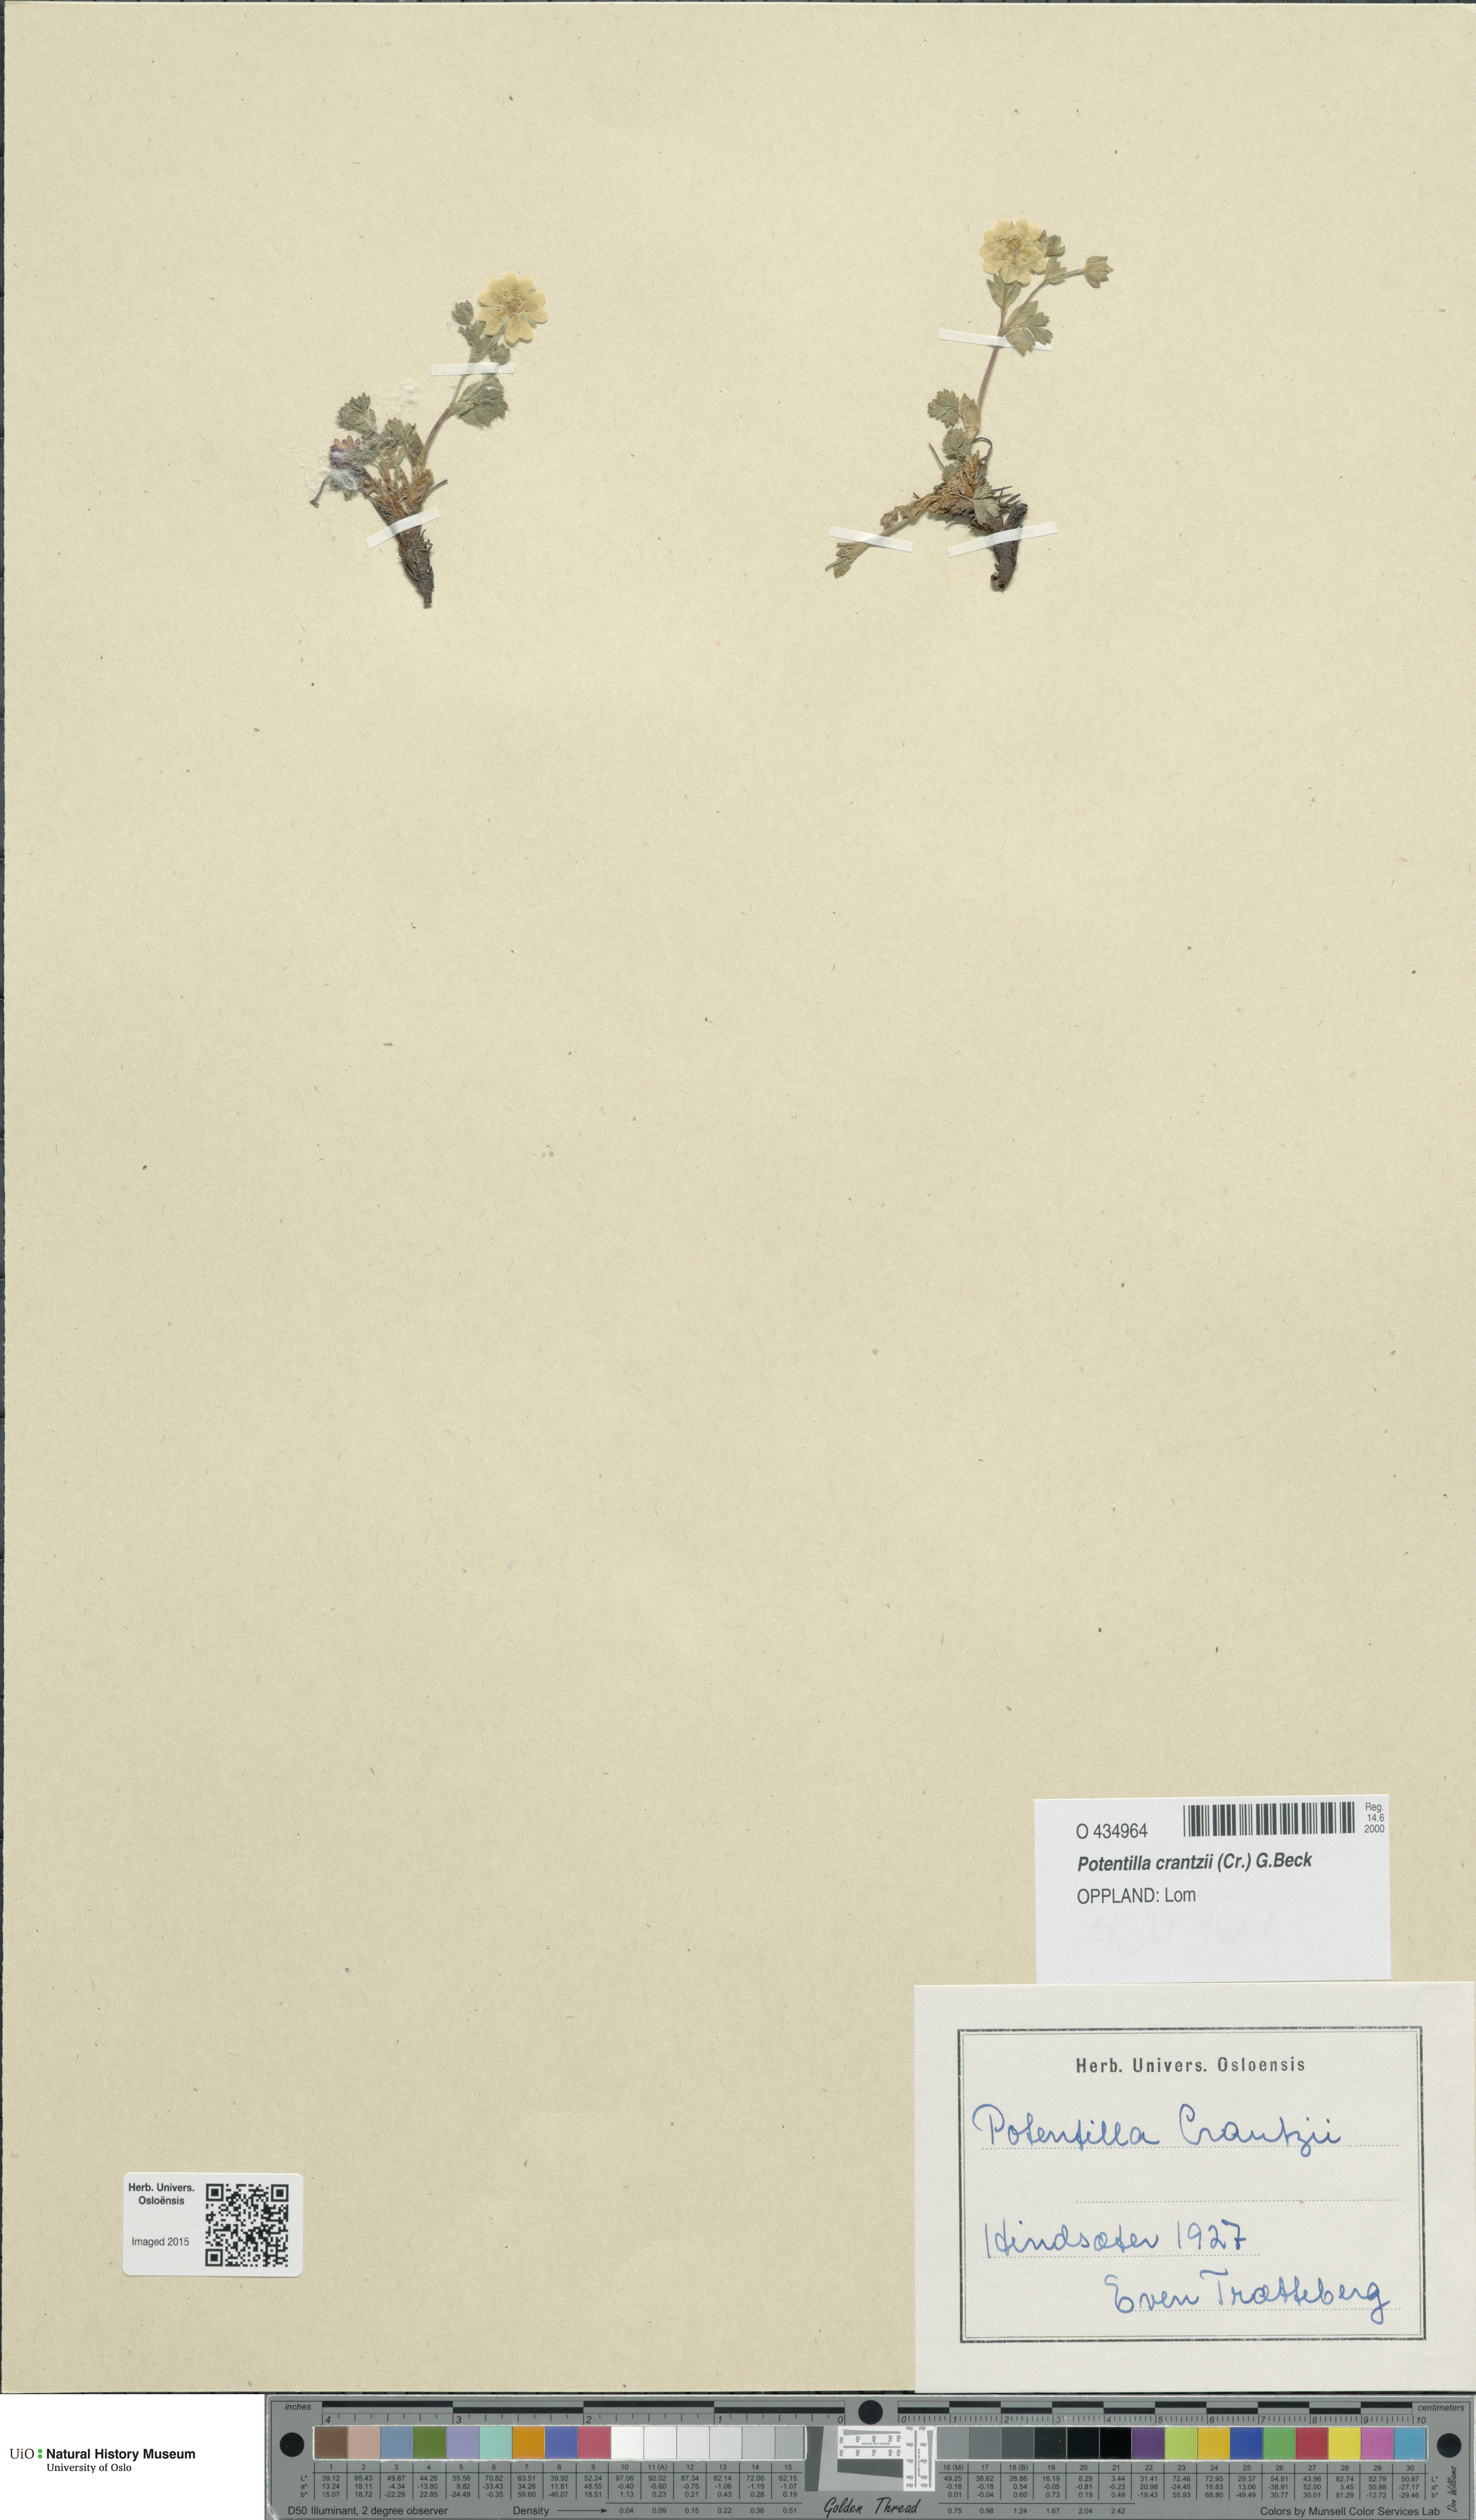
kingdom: Plantae
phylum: Tracheophyta
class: Magnoliopsida
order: Rosales
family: Rosaceae
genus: Potentilla
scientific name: Potentilla crantzii
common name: Alpine cinquefoil
